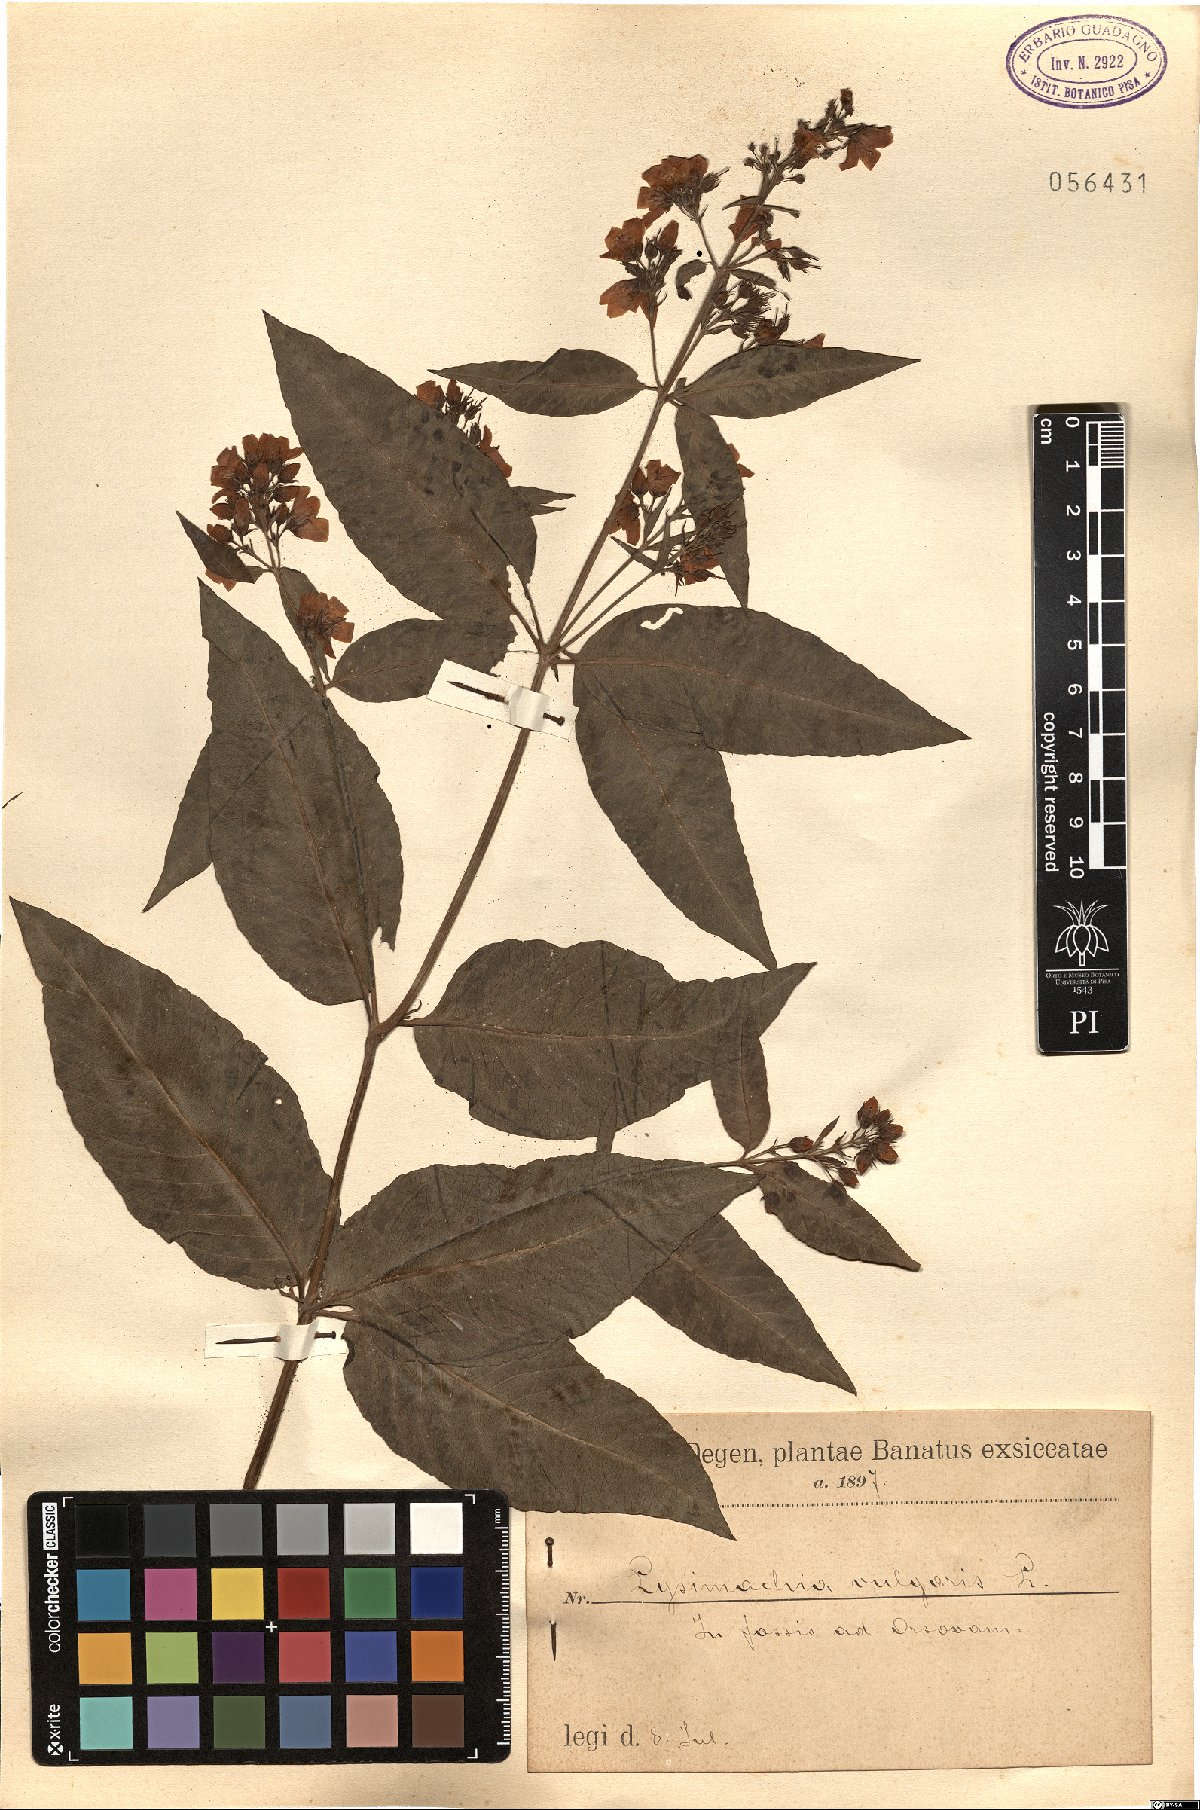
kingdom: Plantae
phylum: Tracheophyta
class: Magnoliopsida
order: Ericales
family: Primulaceae
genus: Lysimachia
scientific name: Lysimachia vulgaris
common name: Yellow loosestrife
